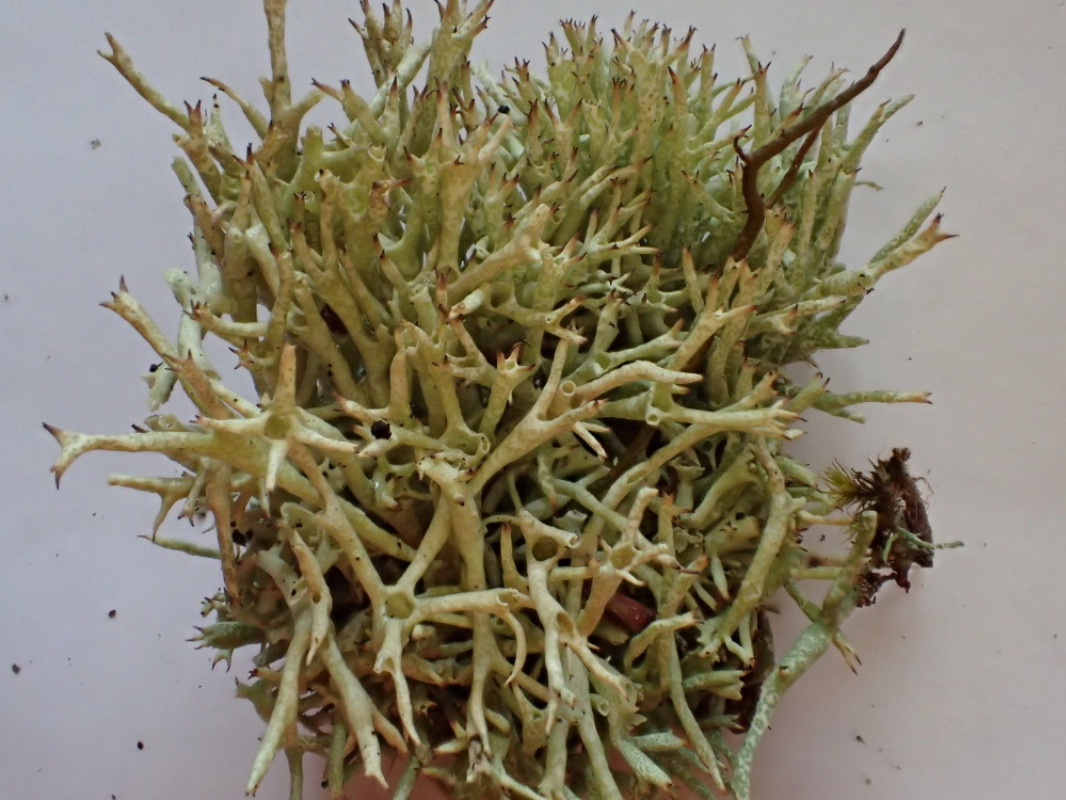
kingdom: Fungi
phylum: Ascomycota
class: Lecanoromycetes
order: Lecanorales
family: Cladoniaceae
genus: Cladonia
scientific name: Cladonia uncialis
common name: pigget bægerlav
